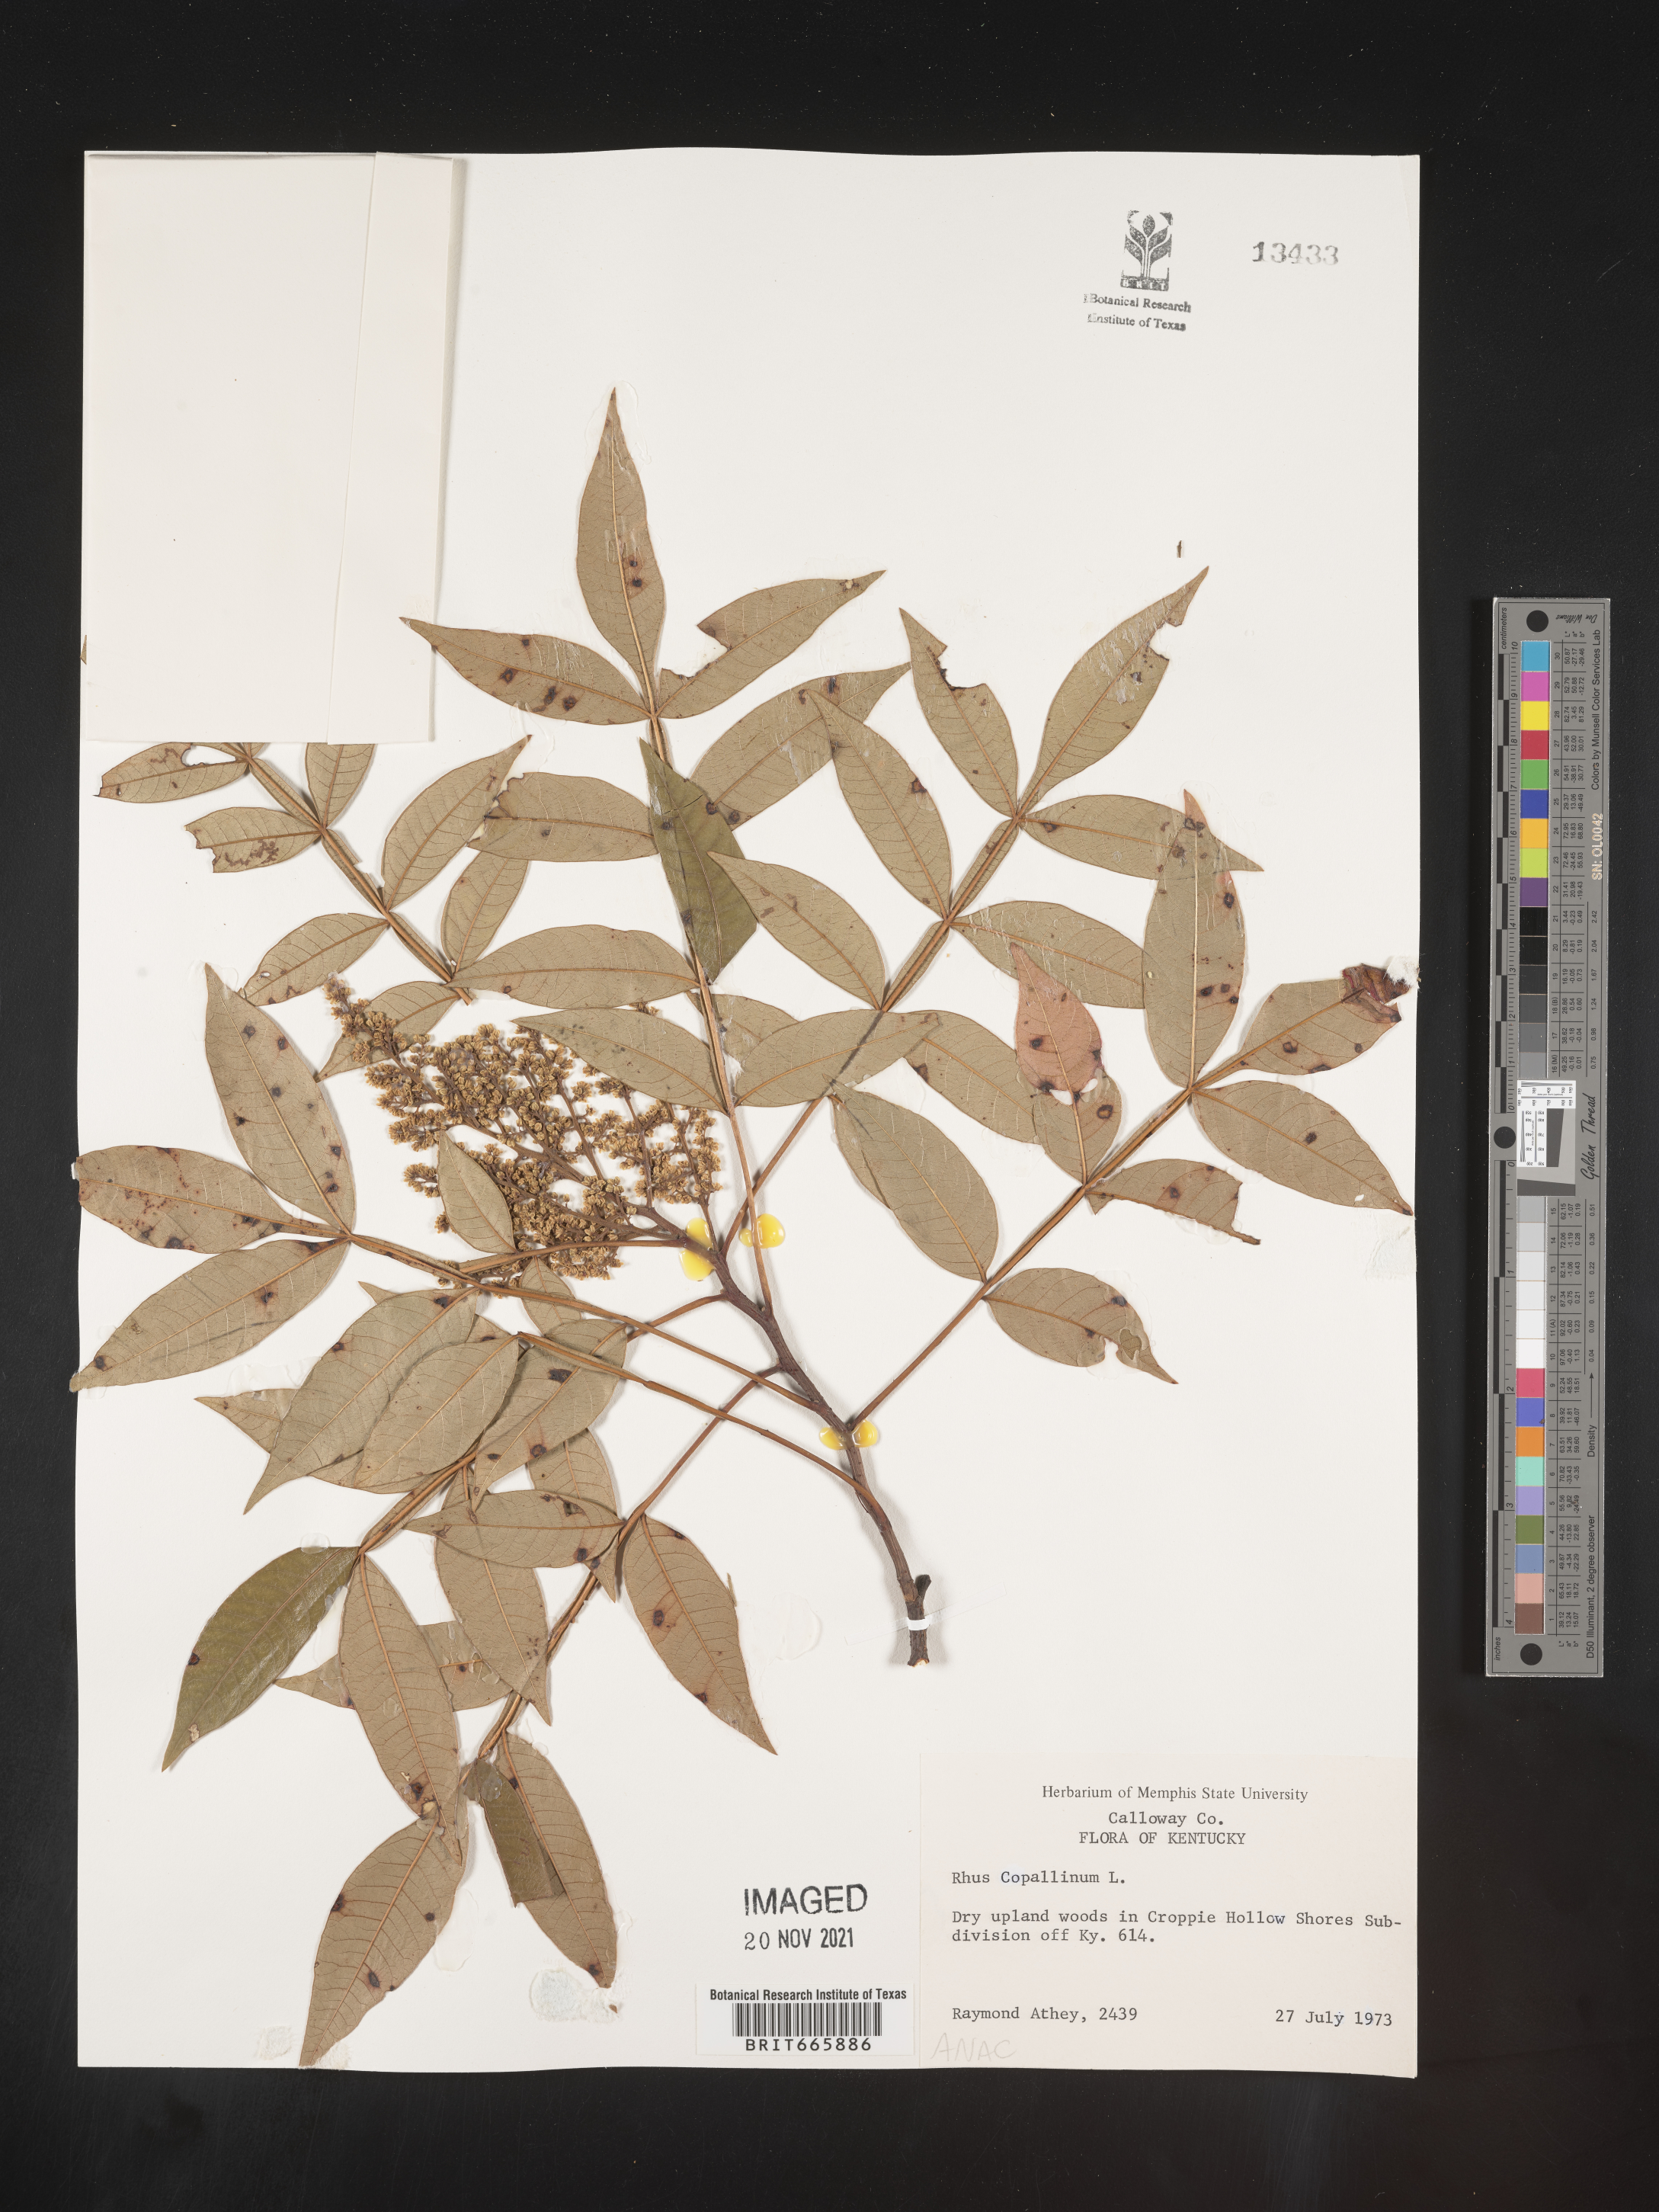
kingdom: Plantae
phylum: Tracheophyta
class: Magnoliopsida
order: Sapindales
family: Anacardiaceae
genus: Rhus
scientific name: Rhus copallina
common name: Shining sumac
